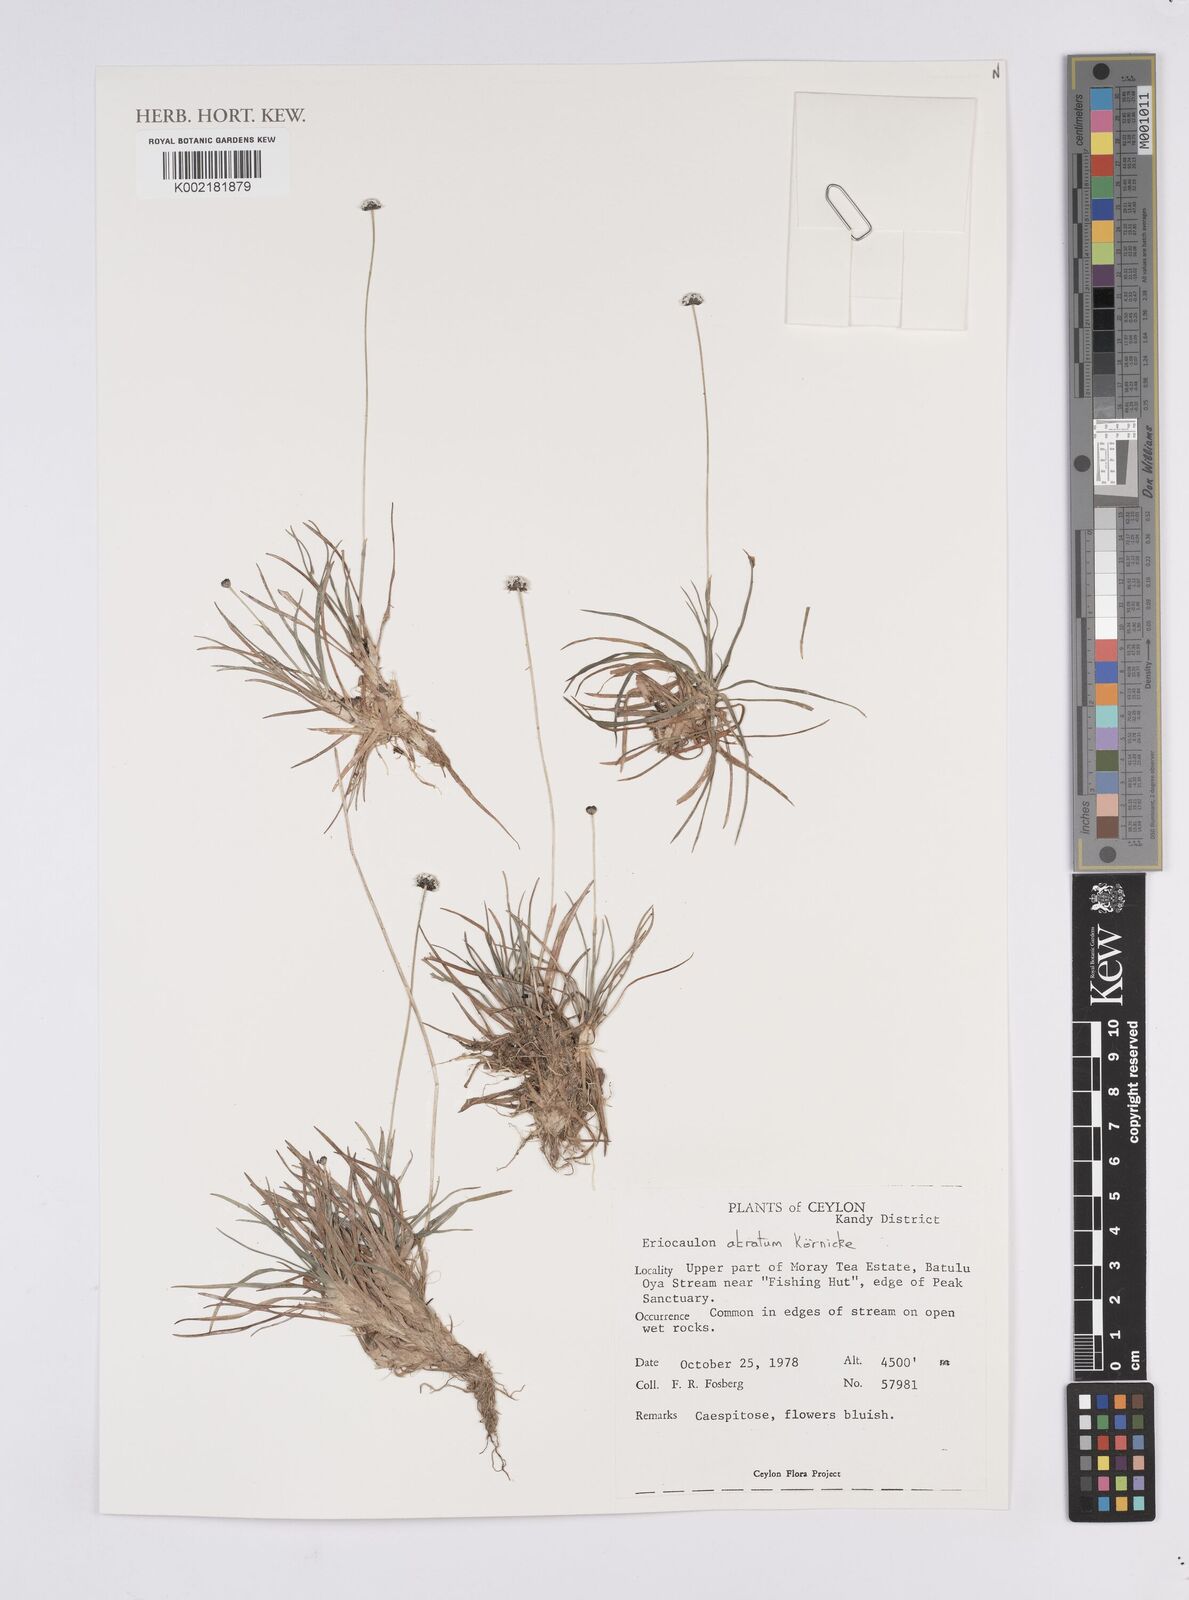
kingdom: Plantae
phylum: Tracheophyta
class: Liliopsida
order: Poales
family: Eriocaulaceae
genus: Eriocaulon
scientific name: Eriocaulon atratum
